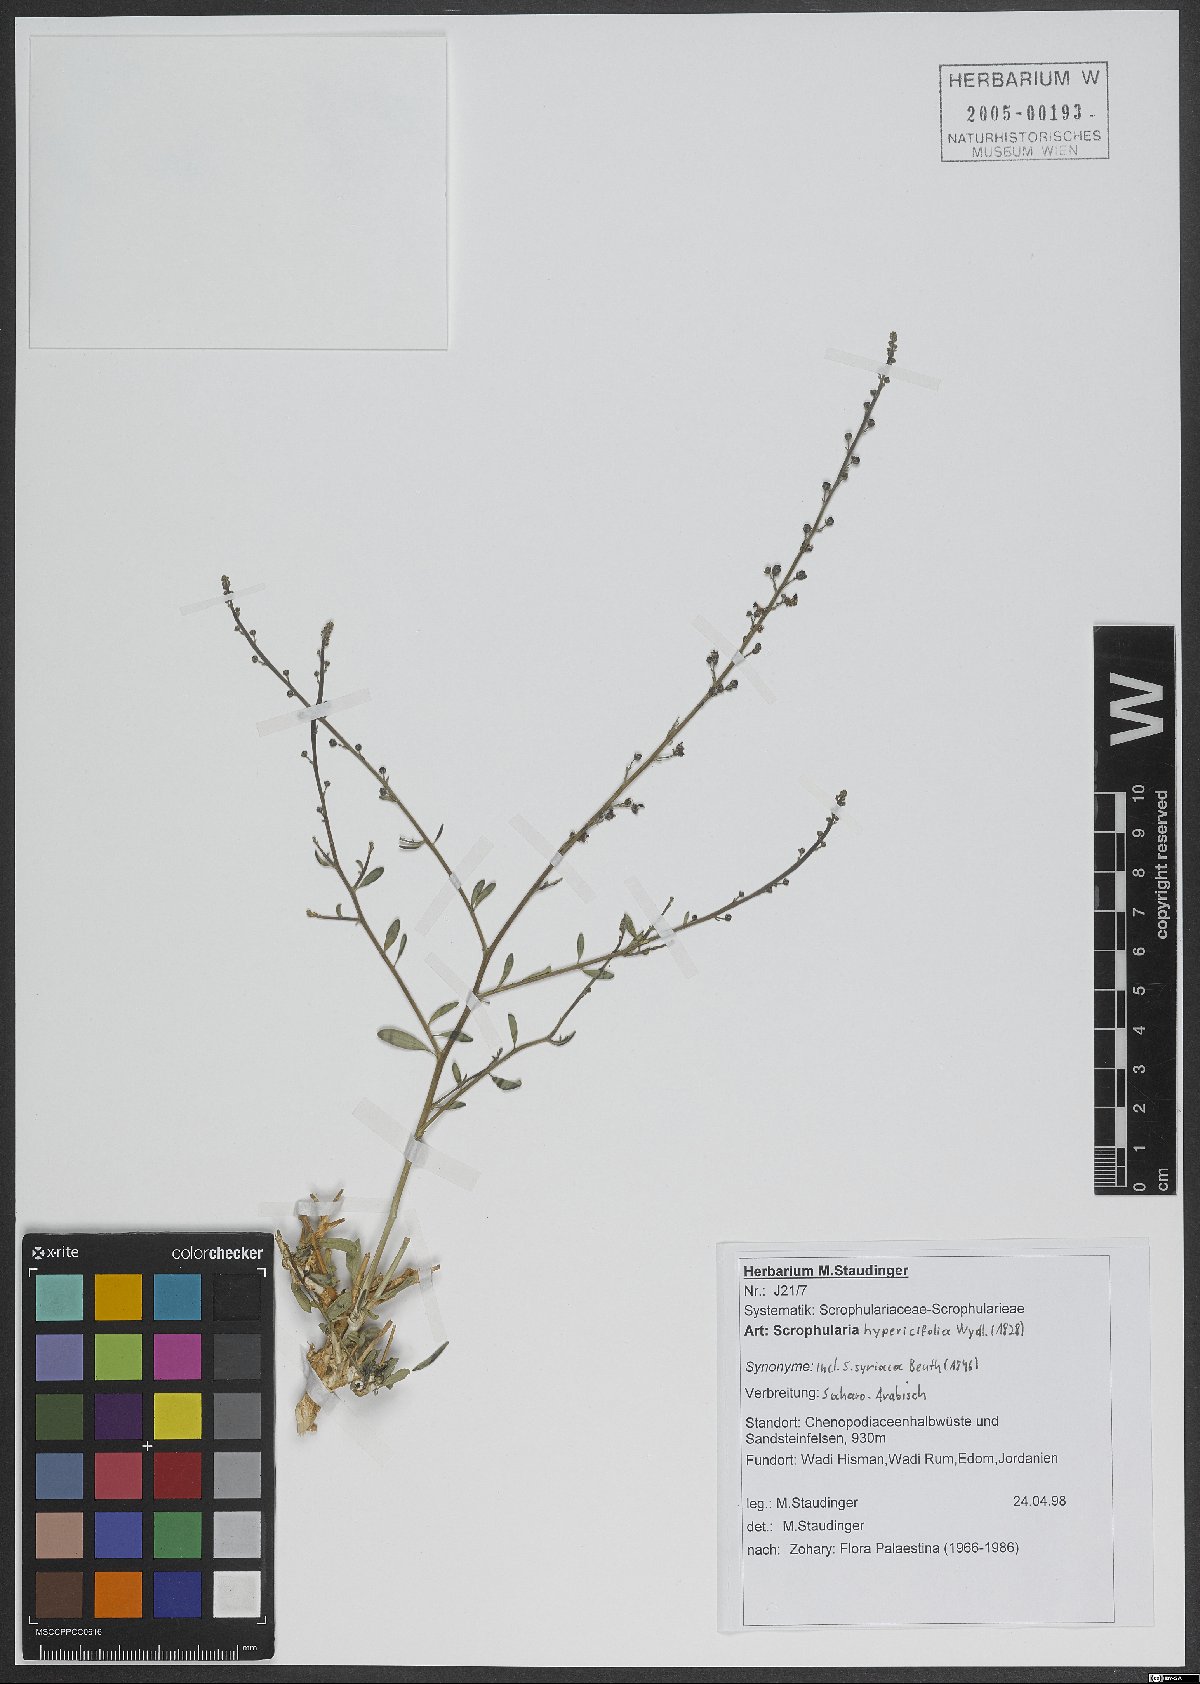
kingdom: Plantae
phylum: Tracheophyta
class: Magnoliopsida
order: Lamiales
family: Scrophulariaceae
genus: Scrophularia
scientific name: Scrophularia hypericifolia
